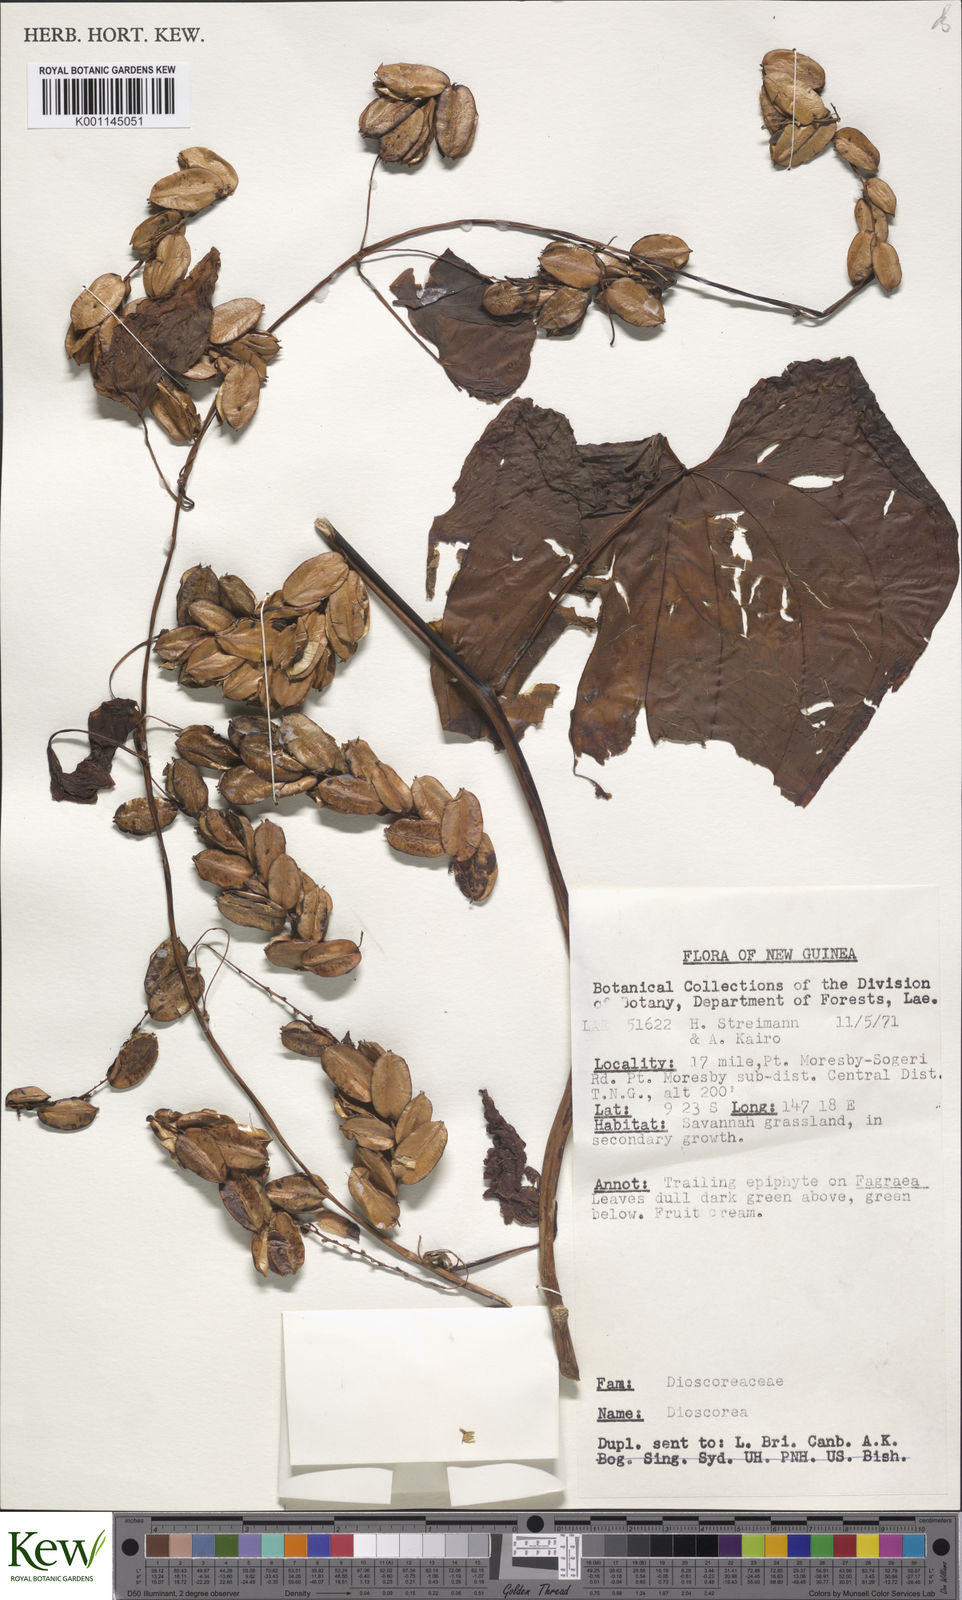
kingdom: Plantae
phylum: Tracheophyta
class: Liliopsida
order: Dioscoreales
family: Dioscoreaceae
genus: Dioscorea
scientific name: Dioscorea
